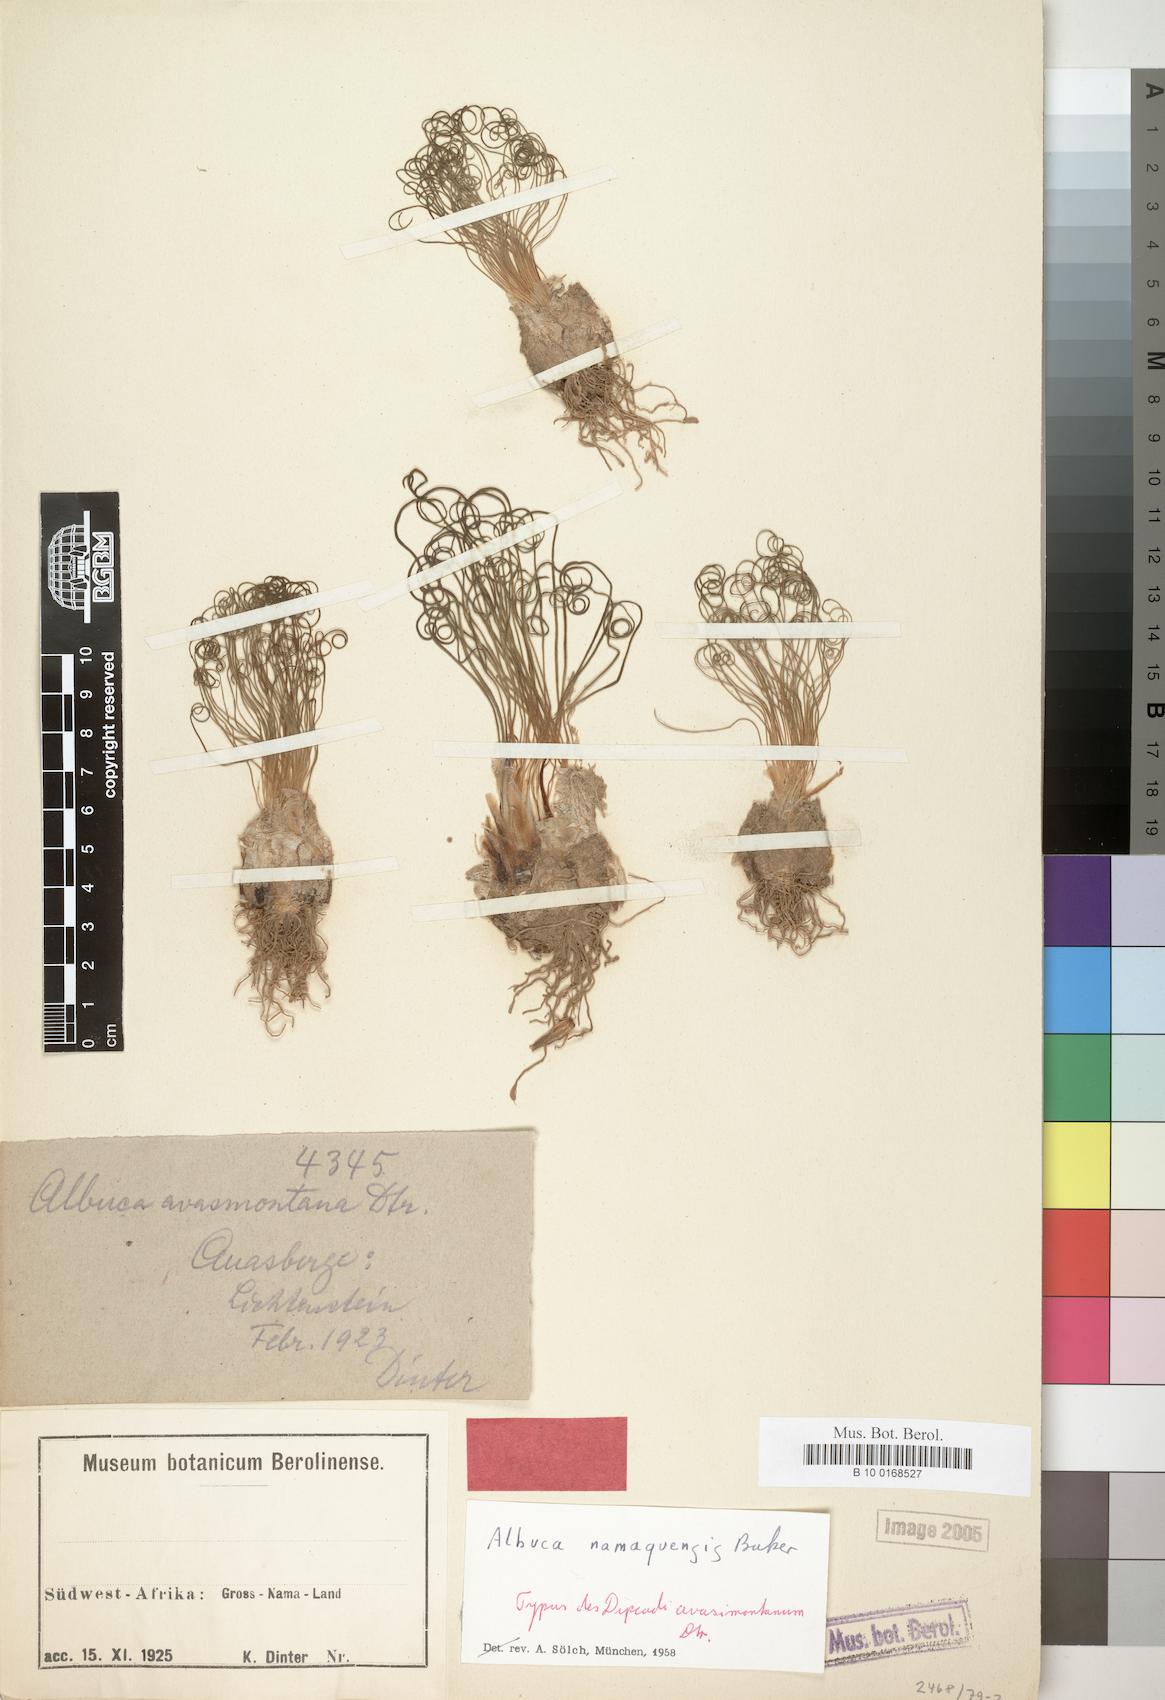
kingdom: Plantae
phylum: Tracheophyta
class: Liliopsida
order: Asparagales
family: Asparagaceae
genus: Albuca
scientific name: Albuca namaquensis
